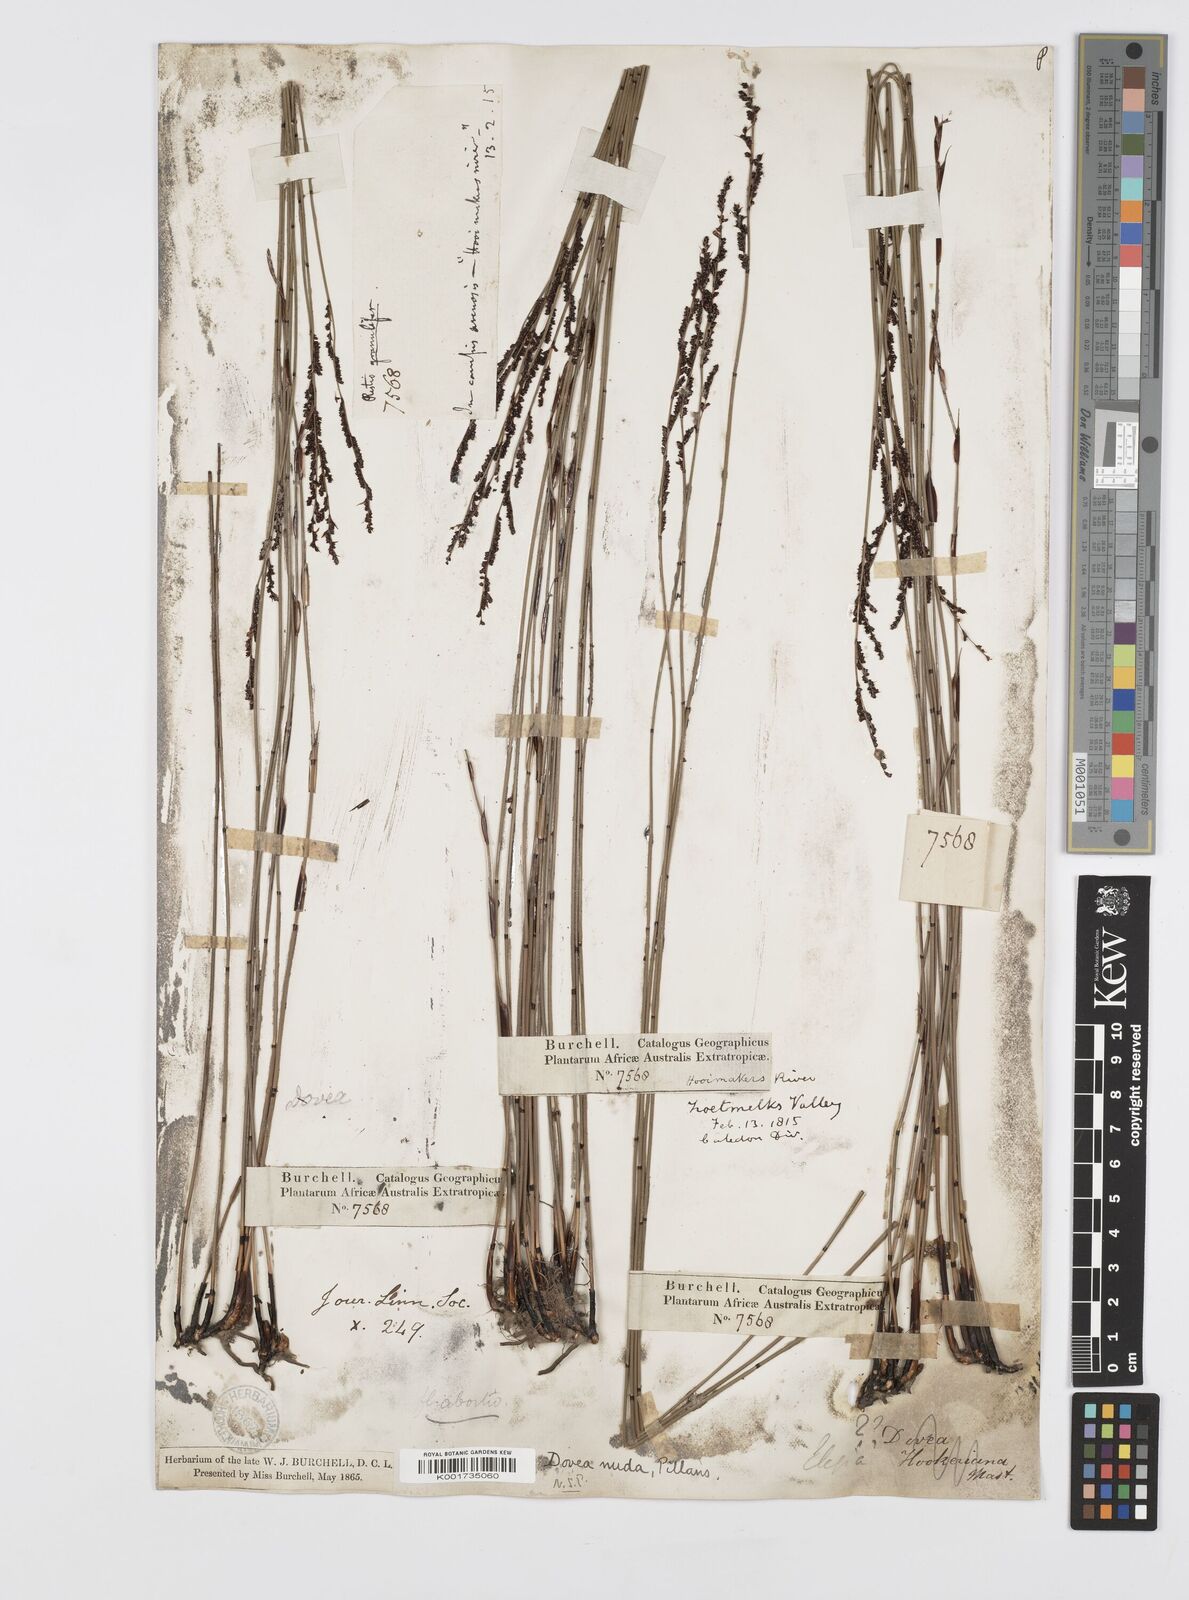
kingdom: Plantae
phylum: Tracheophyta
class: Liliopsida
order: Poales
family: Restionaceae
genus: Elegia
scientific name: Elegia nuda
